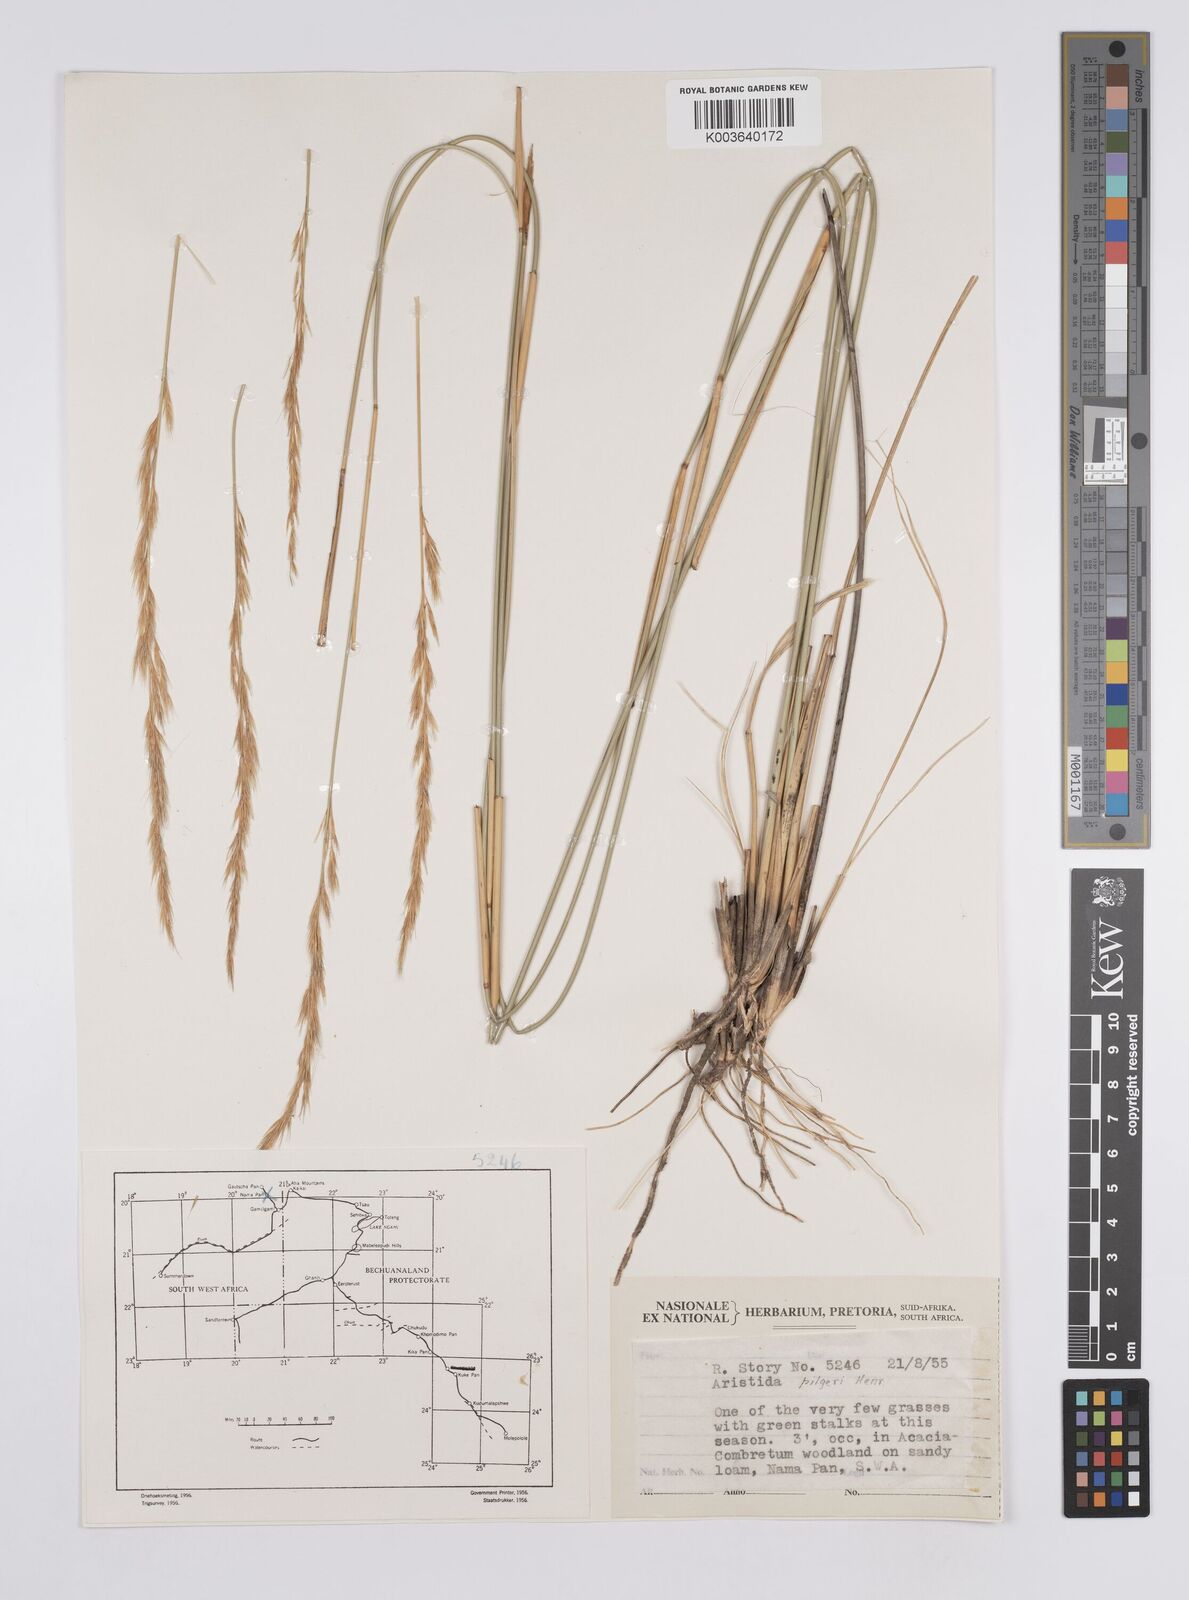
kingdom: Plantae
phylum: Tracheophyta
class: Liliopsida
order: Poales
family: Poaceae
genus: Aristida
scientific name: Aristida pilgeri
